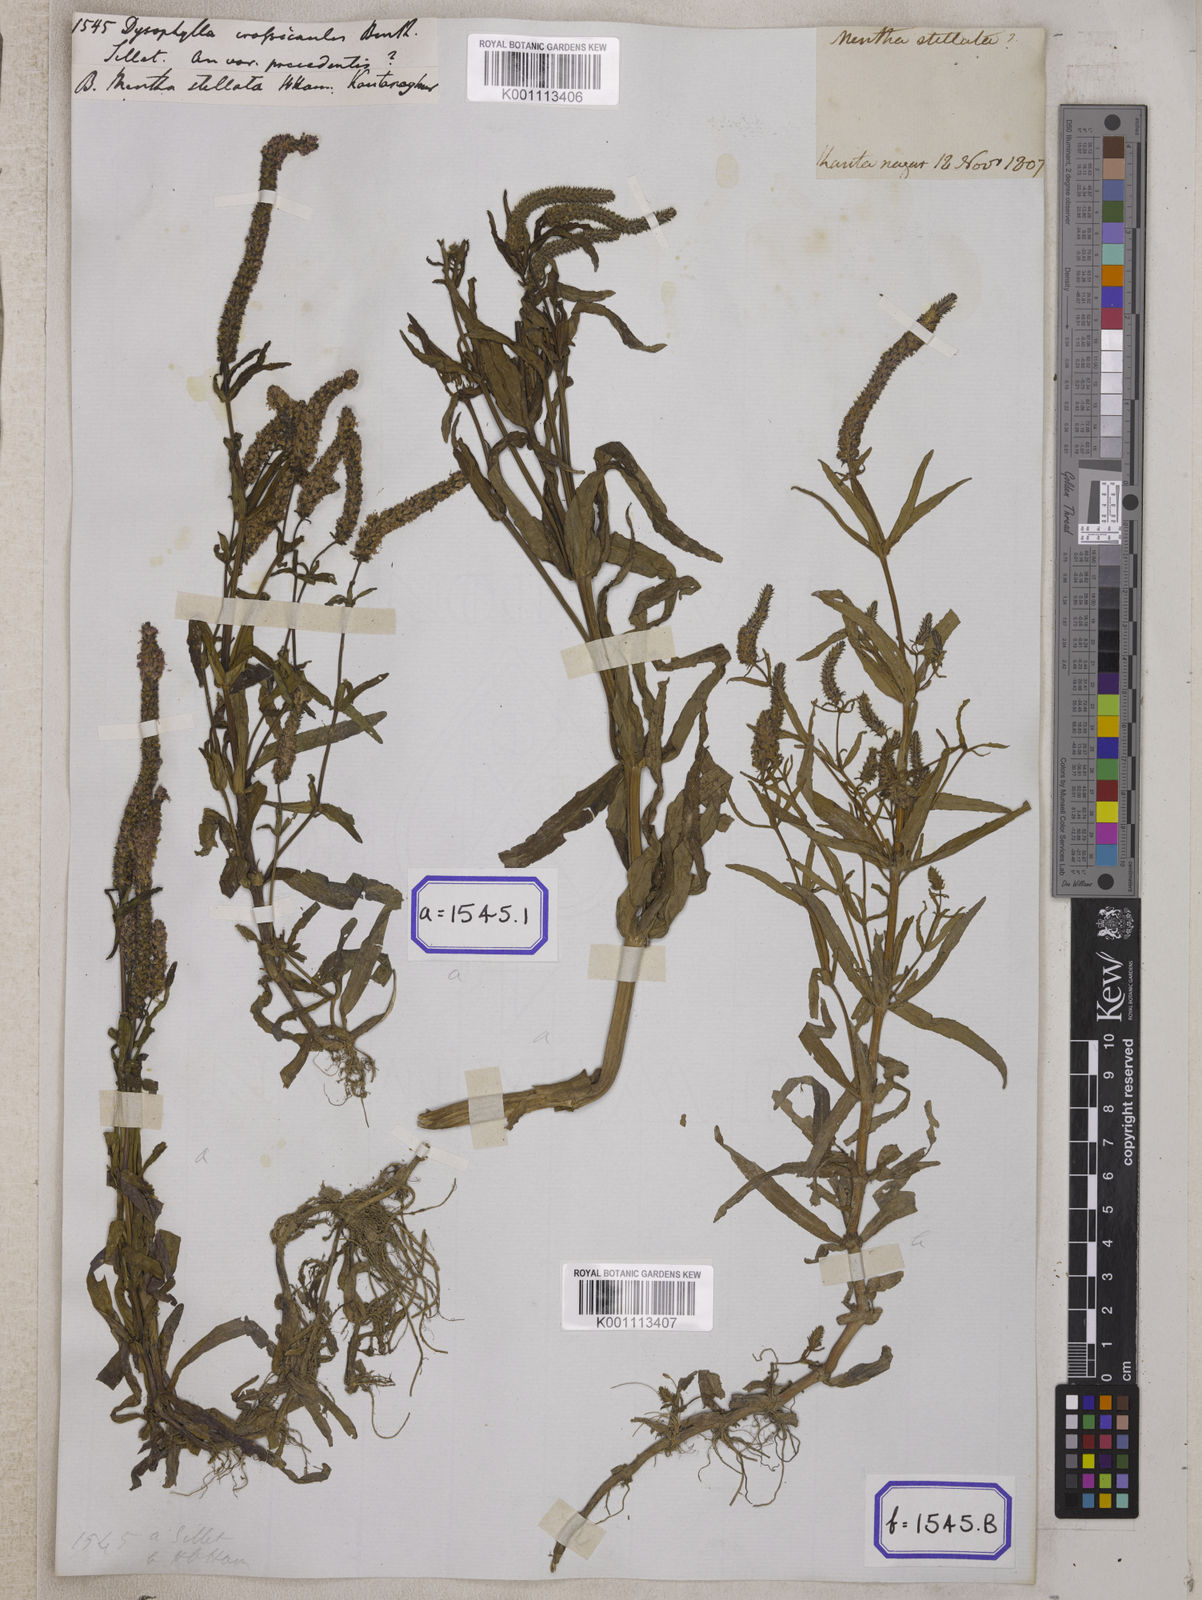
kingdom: Plantae
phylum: Tracheophyta
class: Magnoliopsida
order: Lamiales
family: Lamiaceae
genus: Pogostemon
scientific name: Pogostemon crassicaulis
